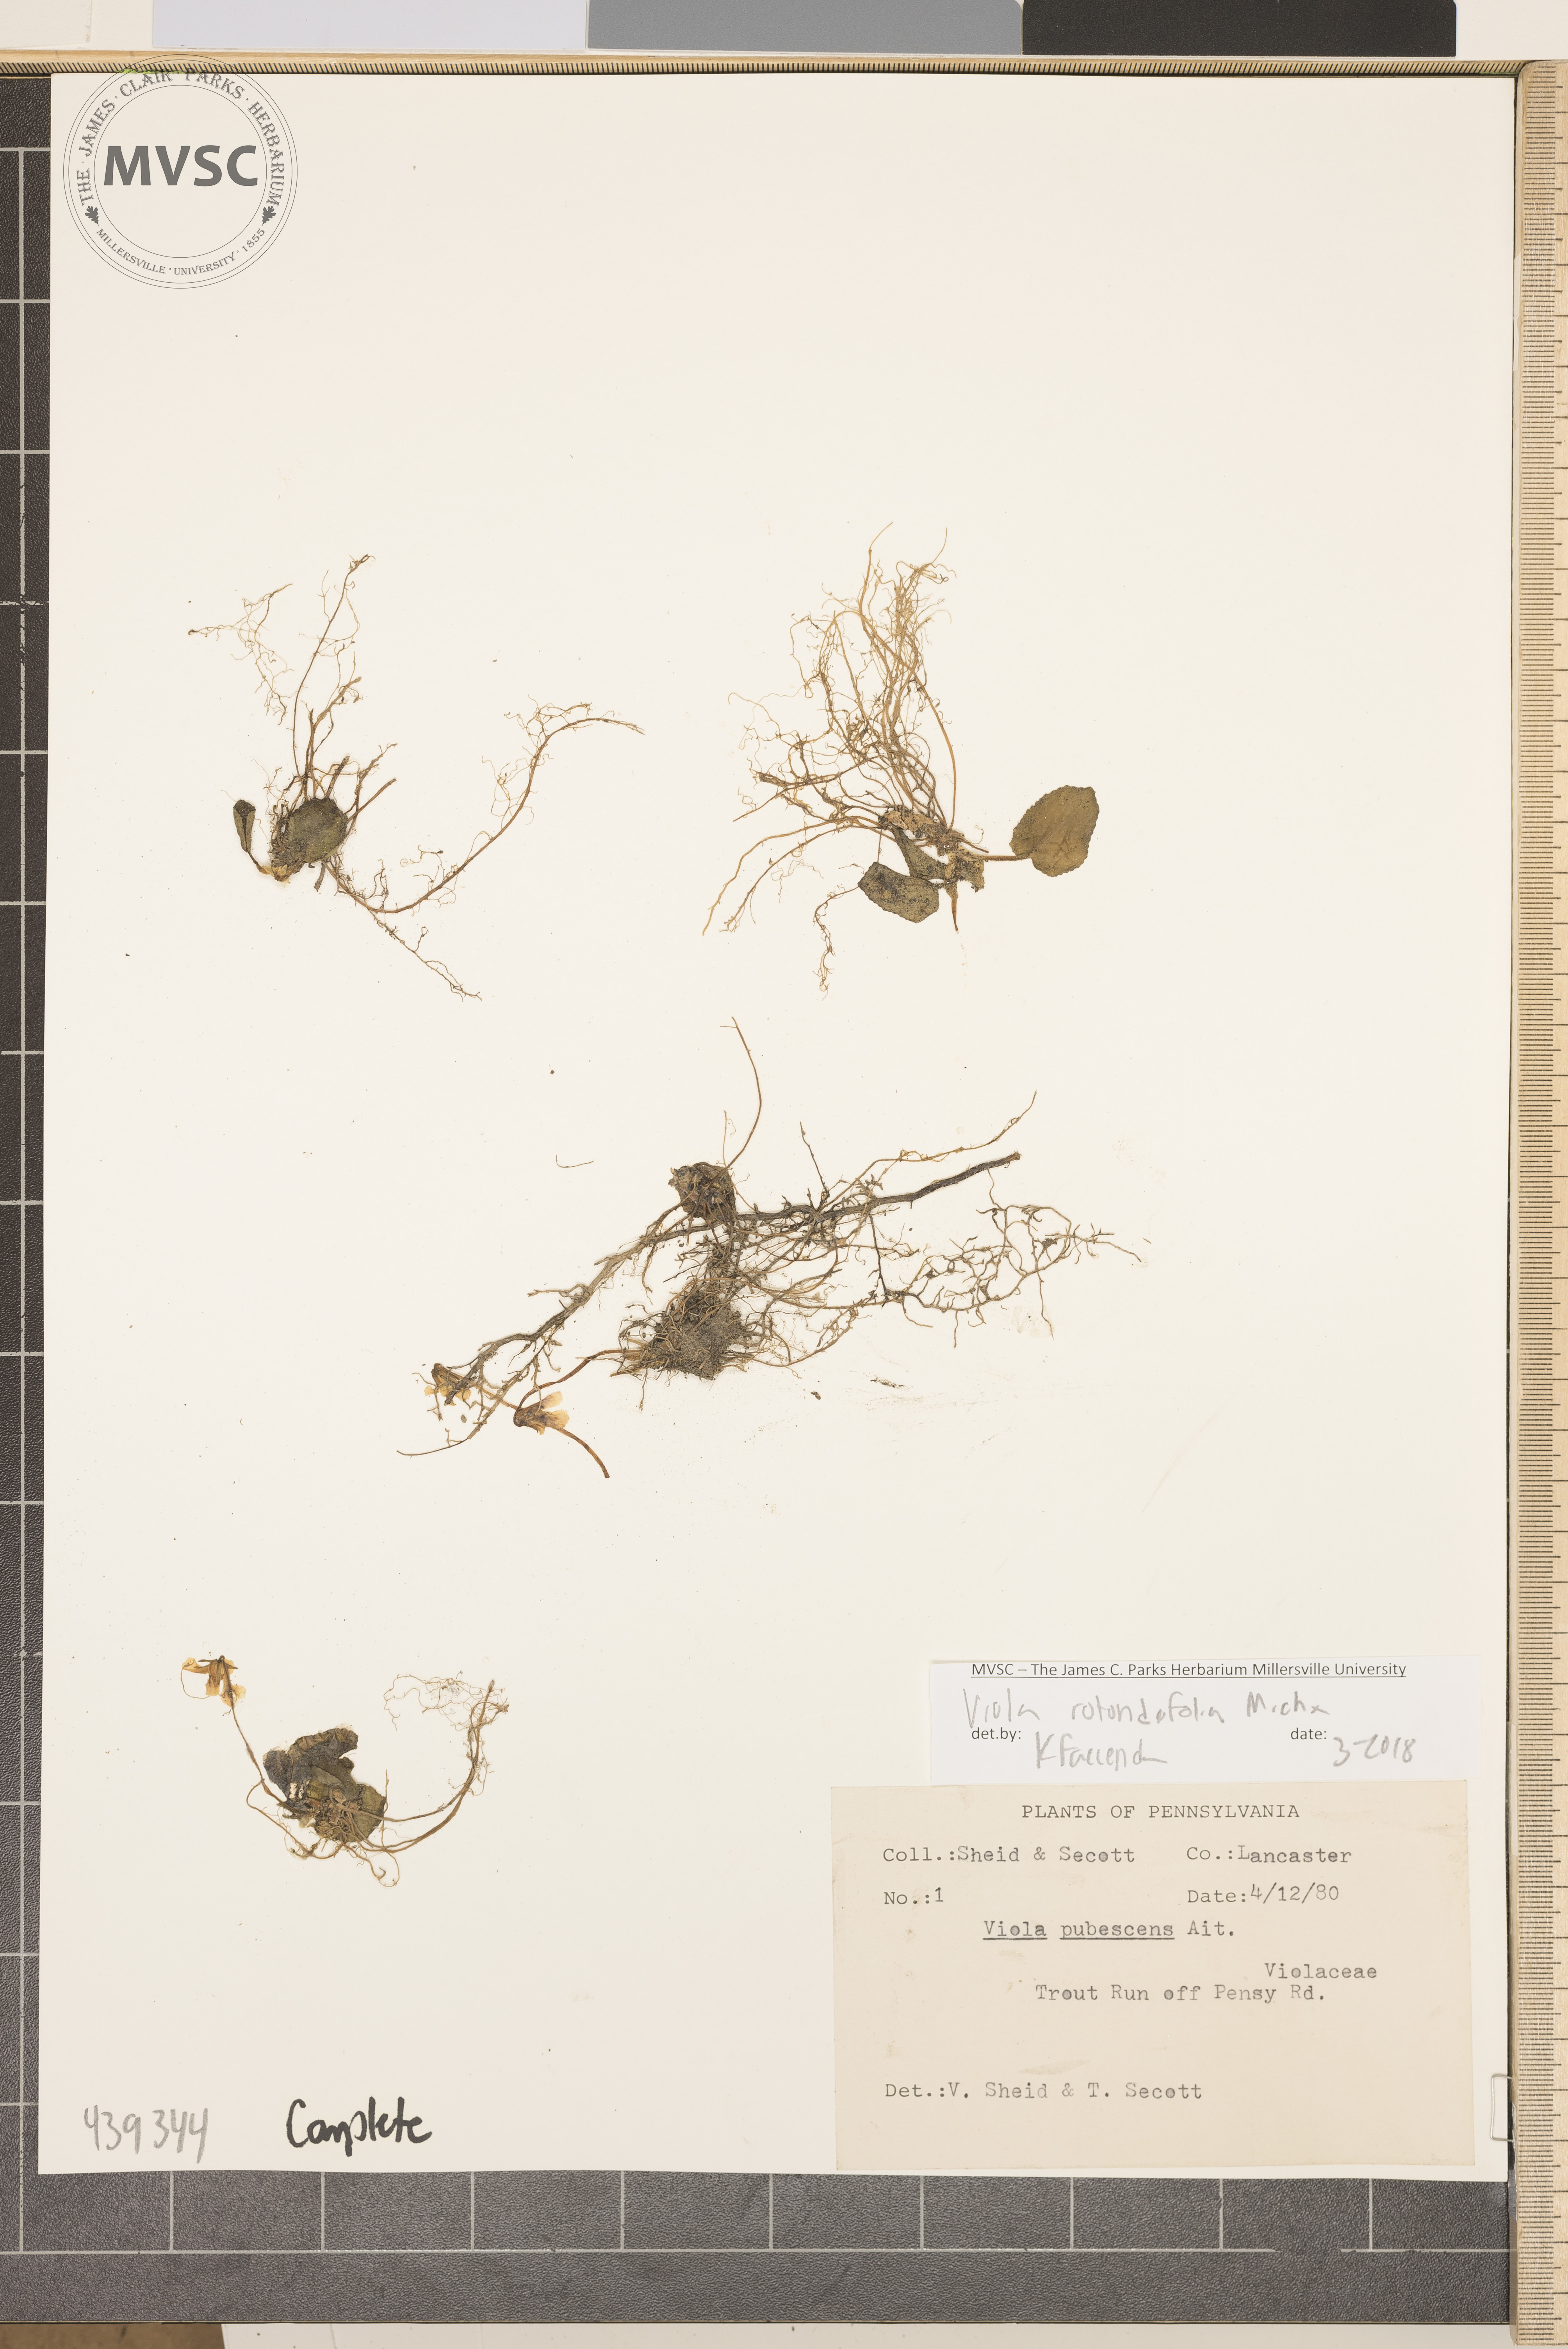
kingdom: Plantae
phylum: Tracheophyta
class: Magnoliopsida
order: Malpighiales
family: Violaceae
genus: Viola
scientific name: Viola rotundifolia
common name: Early yellow violet
